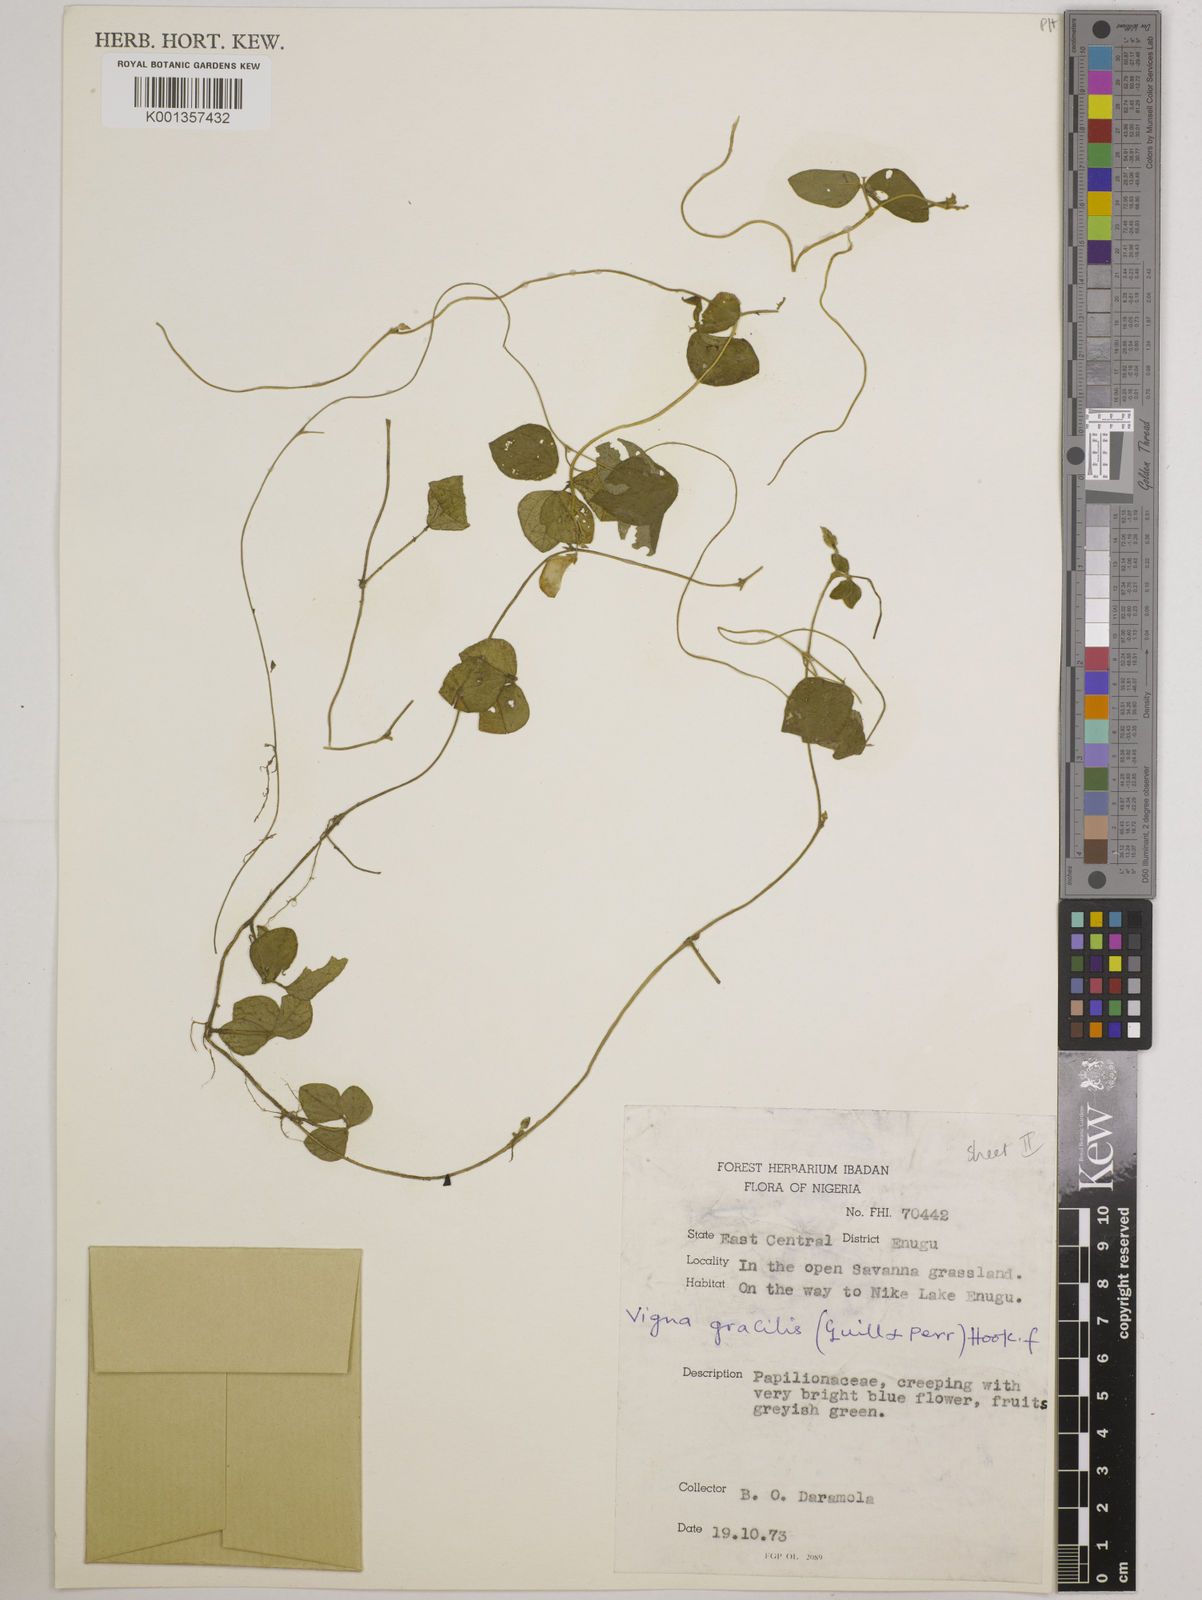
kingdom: Plantae
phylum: Tracheophyta
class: Magnoliopsida
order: Fabales
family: Fabaceae
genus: Vigna
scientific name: Vigna gracilis
